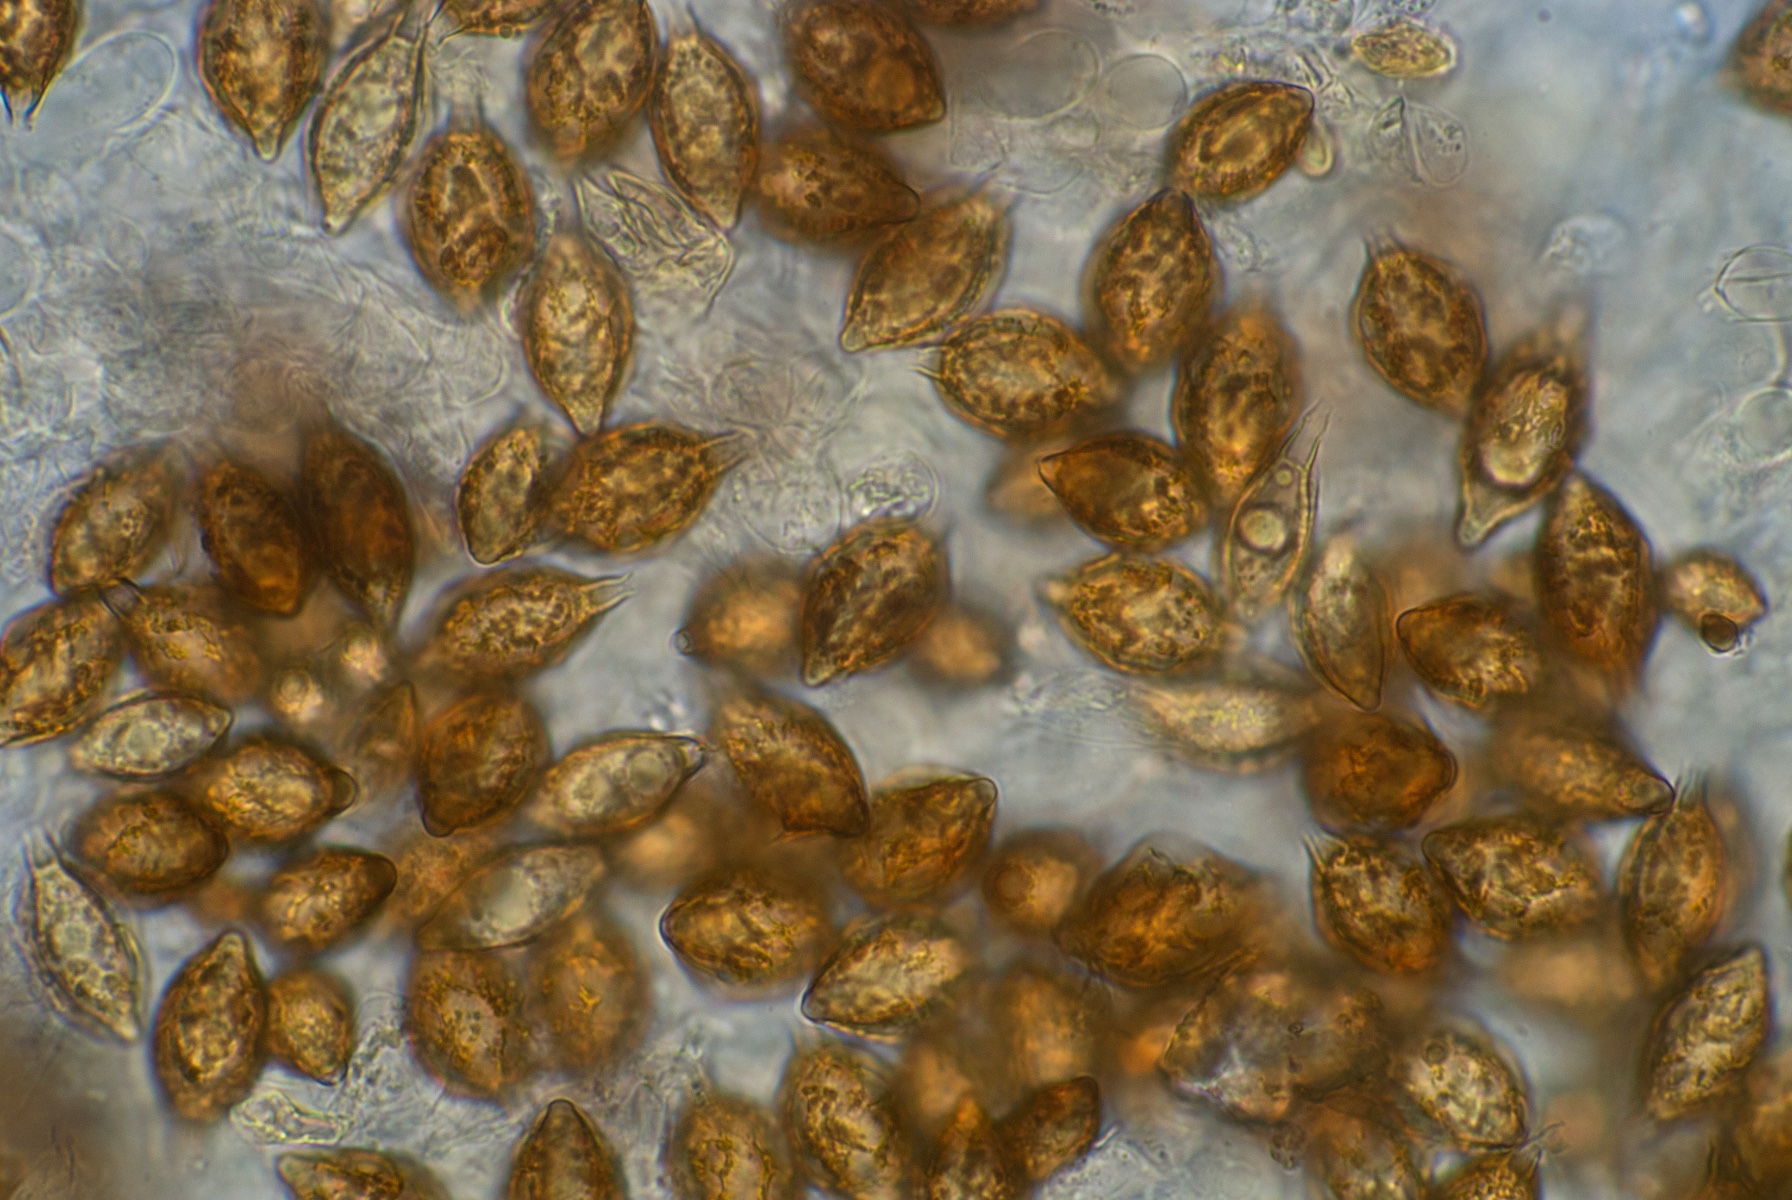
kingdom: Fungi
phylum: Basidiomycota
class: Agaricomycetes
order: Agaricales
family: Hymenogastraceae
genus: Hymenogaster
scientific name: Hymenogaster
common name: knoldtrøffel
